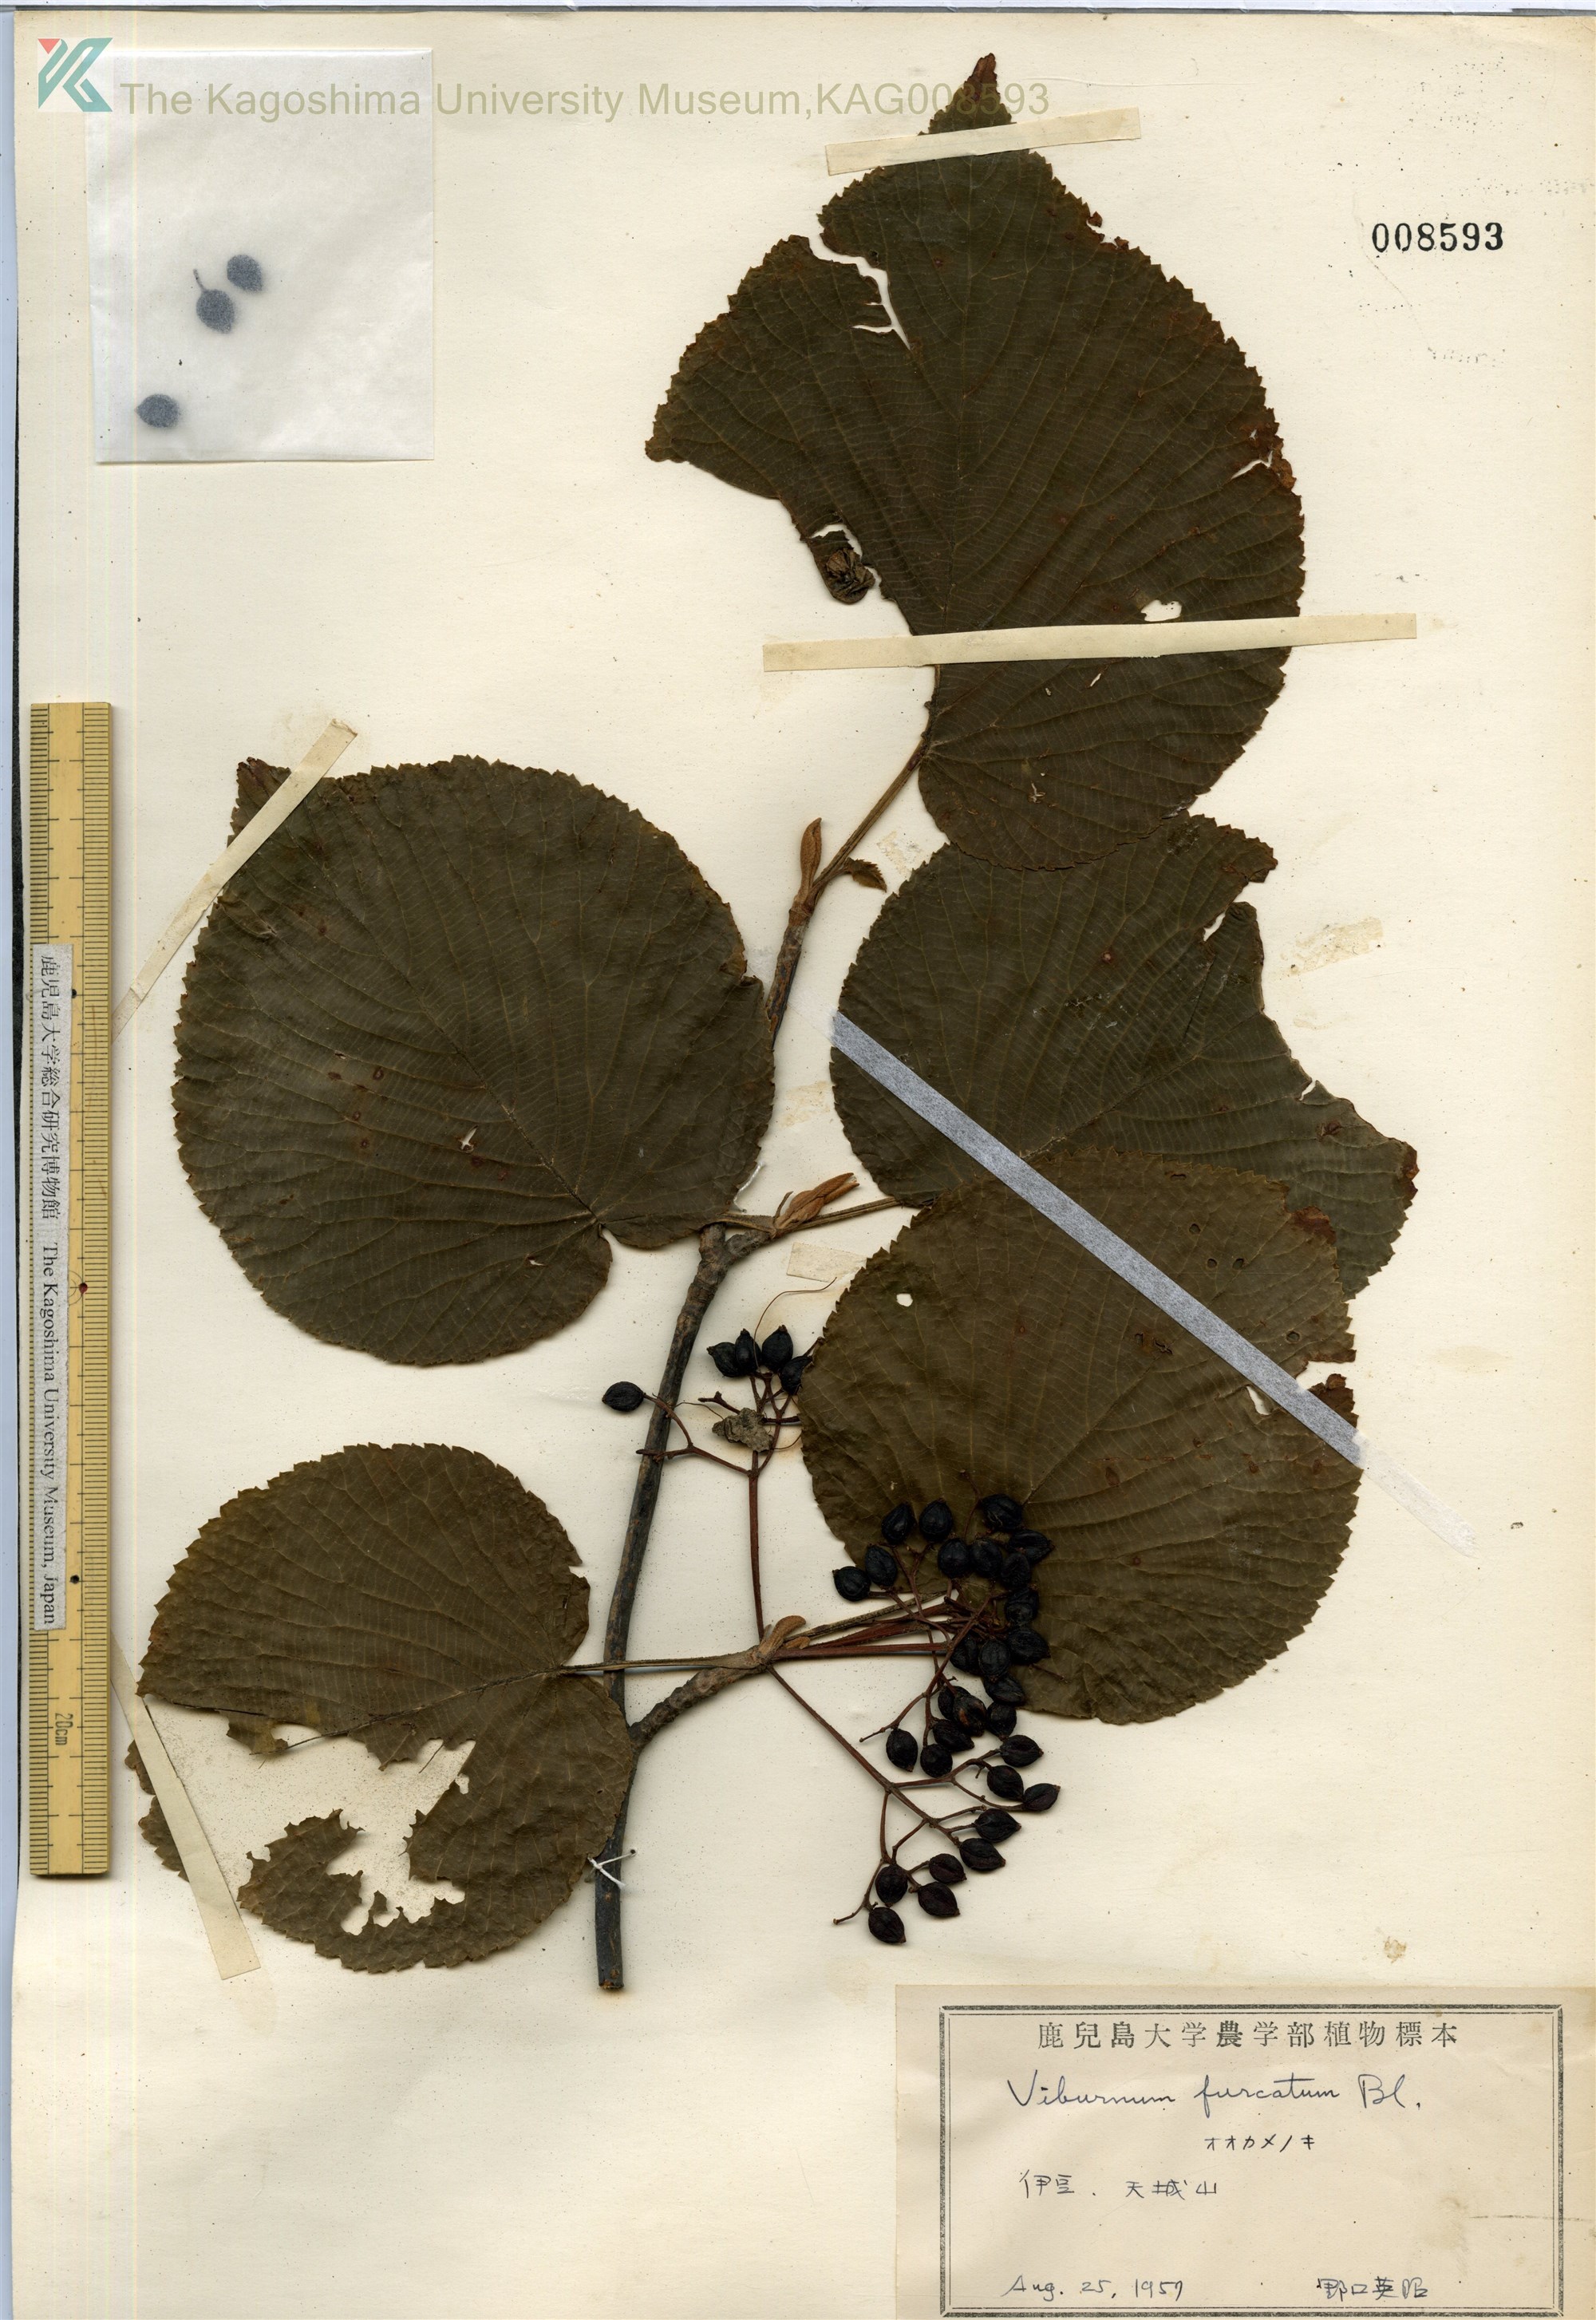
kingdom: Plantae
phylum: Tracheophyta
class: Magnoliopsida
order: Dipsacales
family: Viburnaceae
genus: Viburnum
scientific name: Viburnum furcatum
